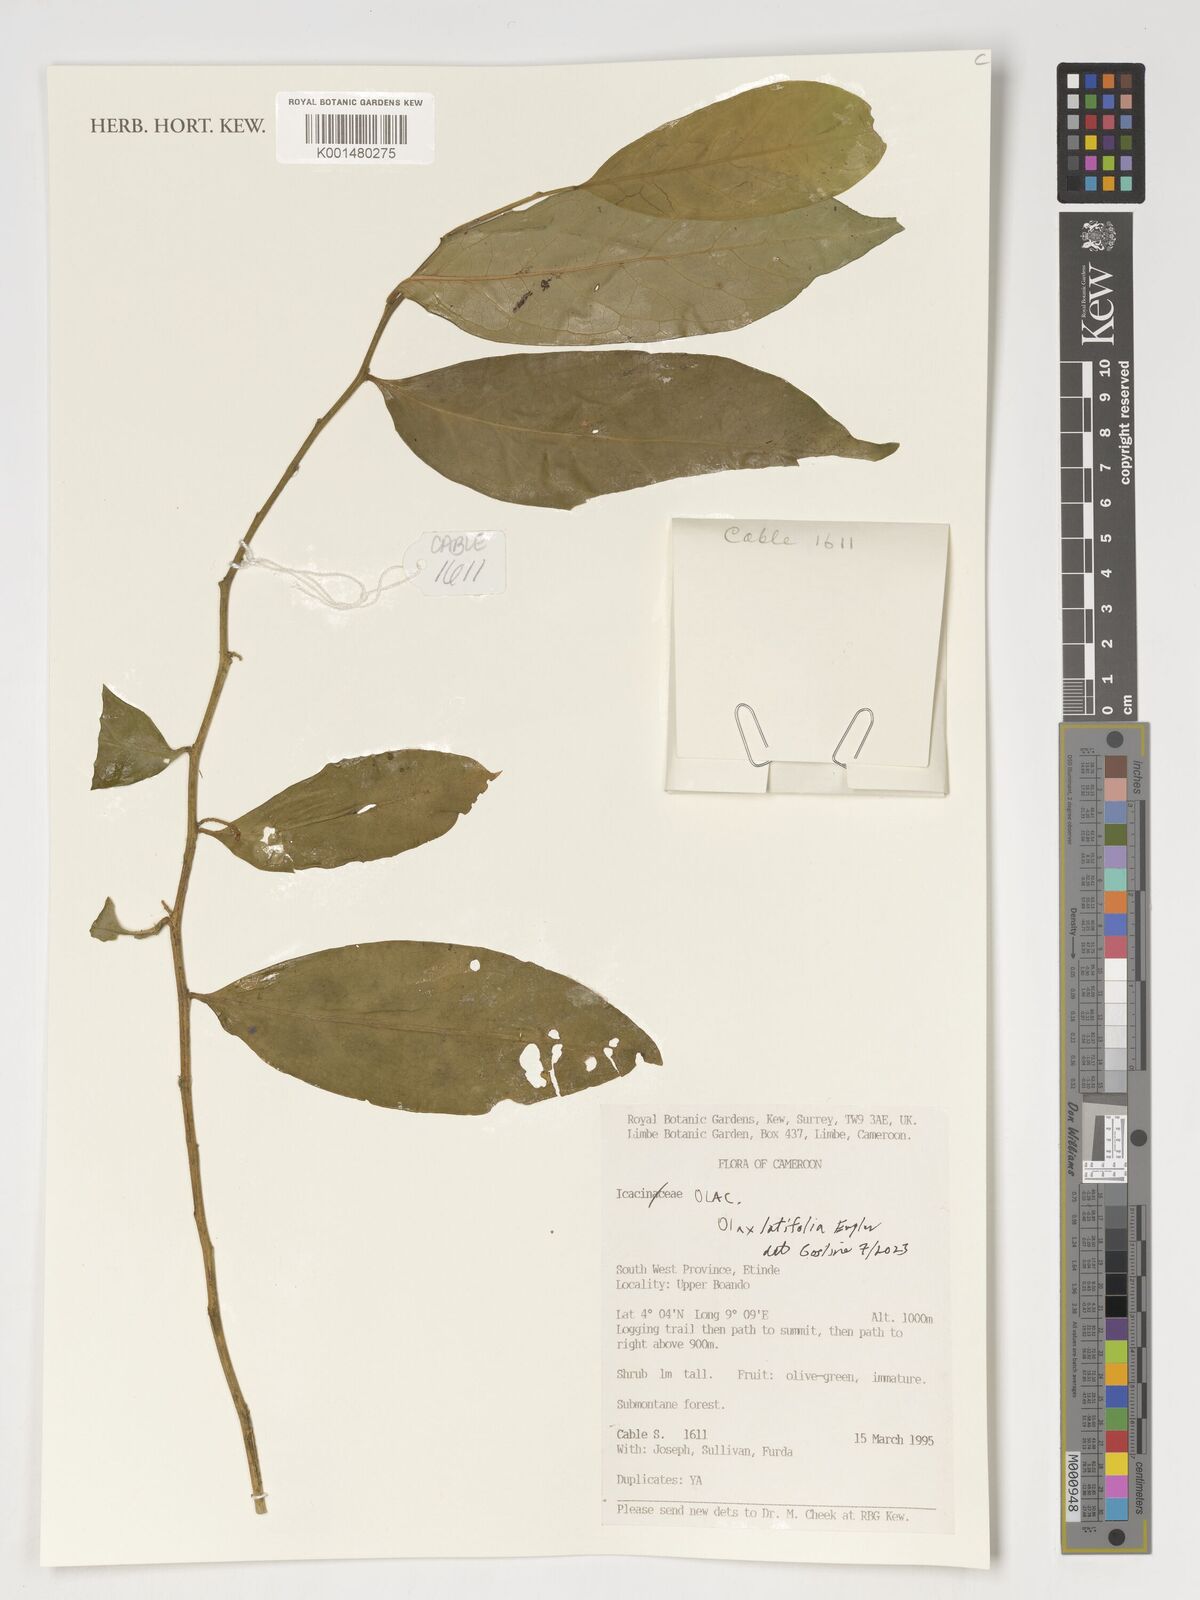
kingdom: Plantae
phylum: Tracheophyta
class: Magnoliopsida
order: Santalales
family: Olacaceae
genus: Olax
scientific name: Olax latifolia
